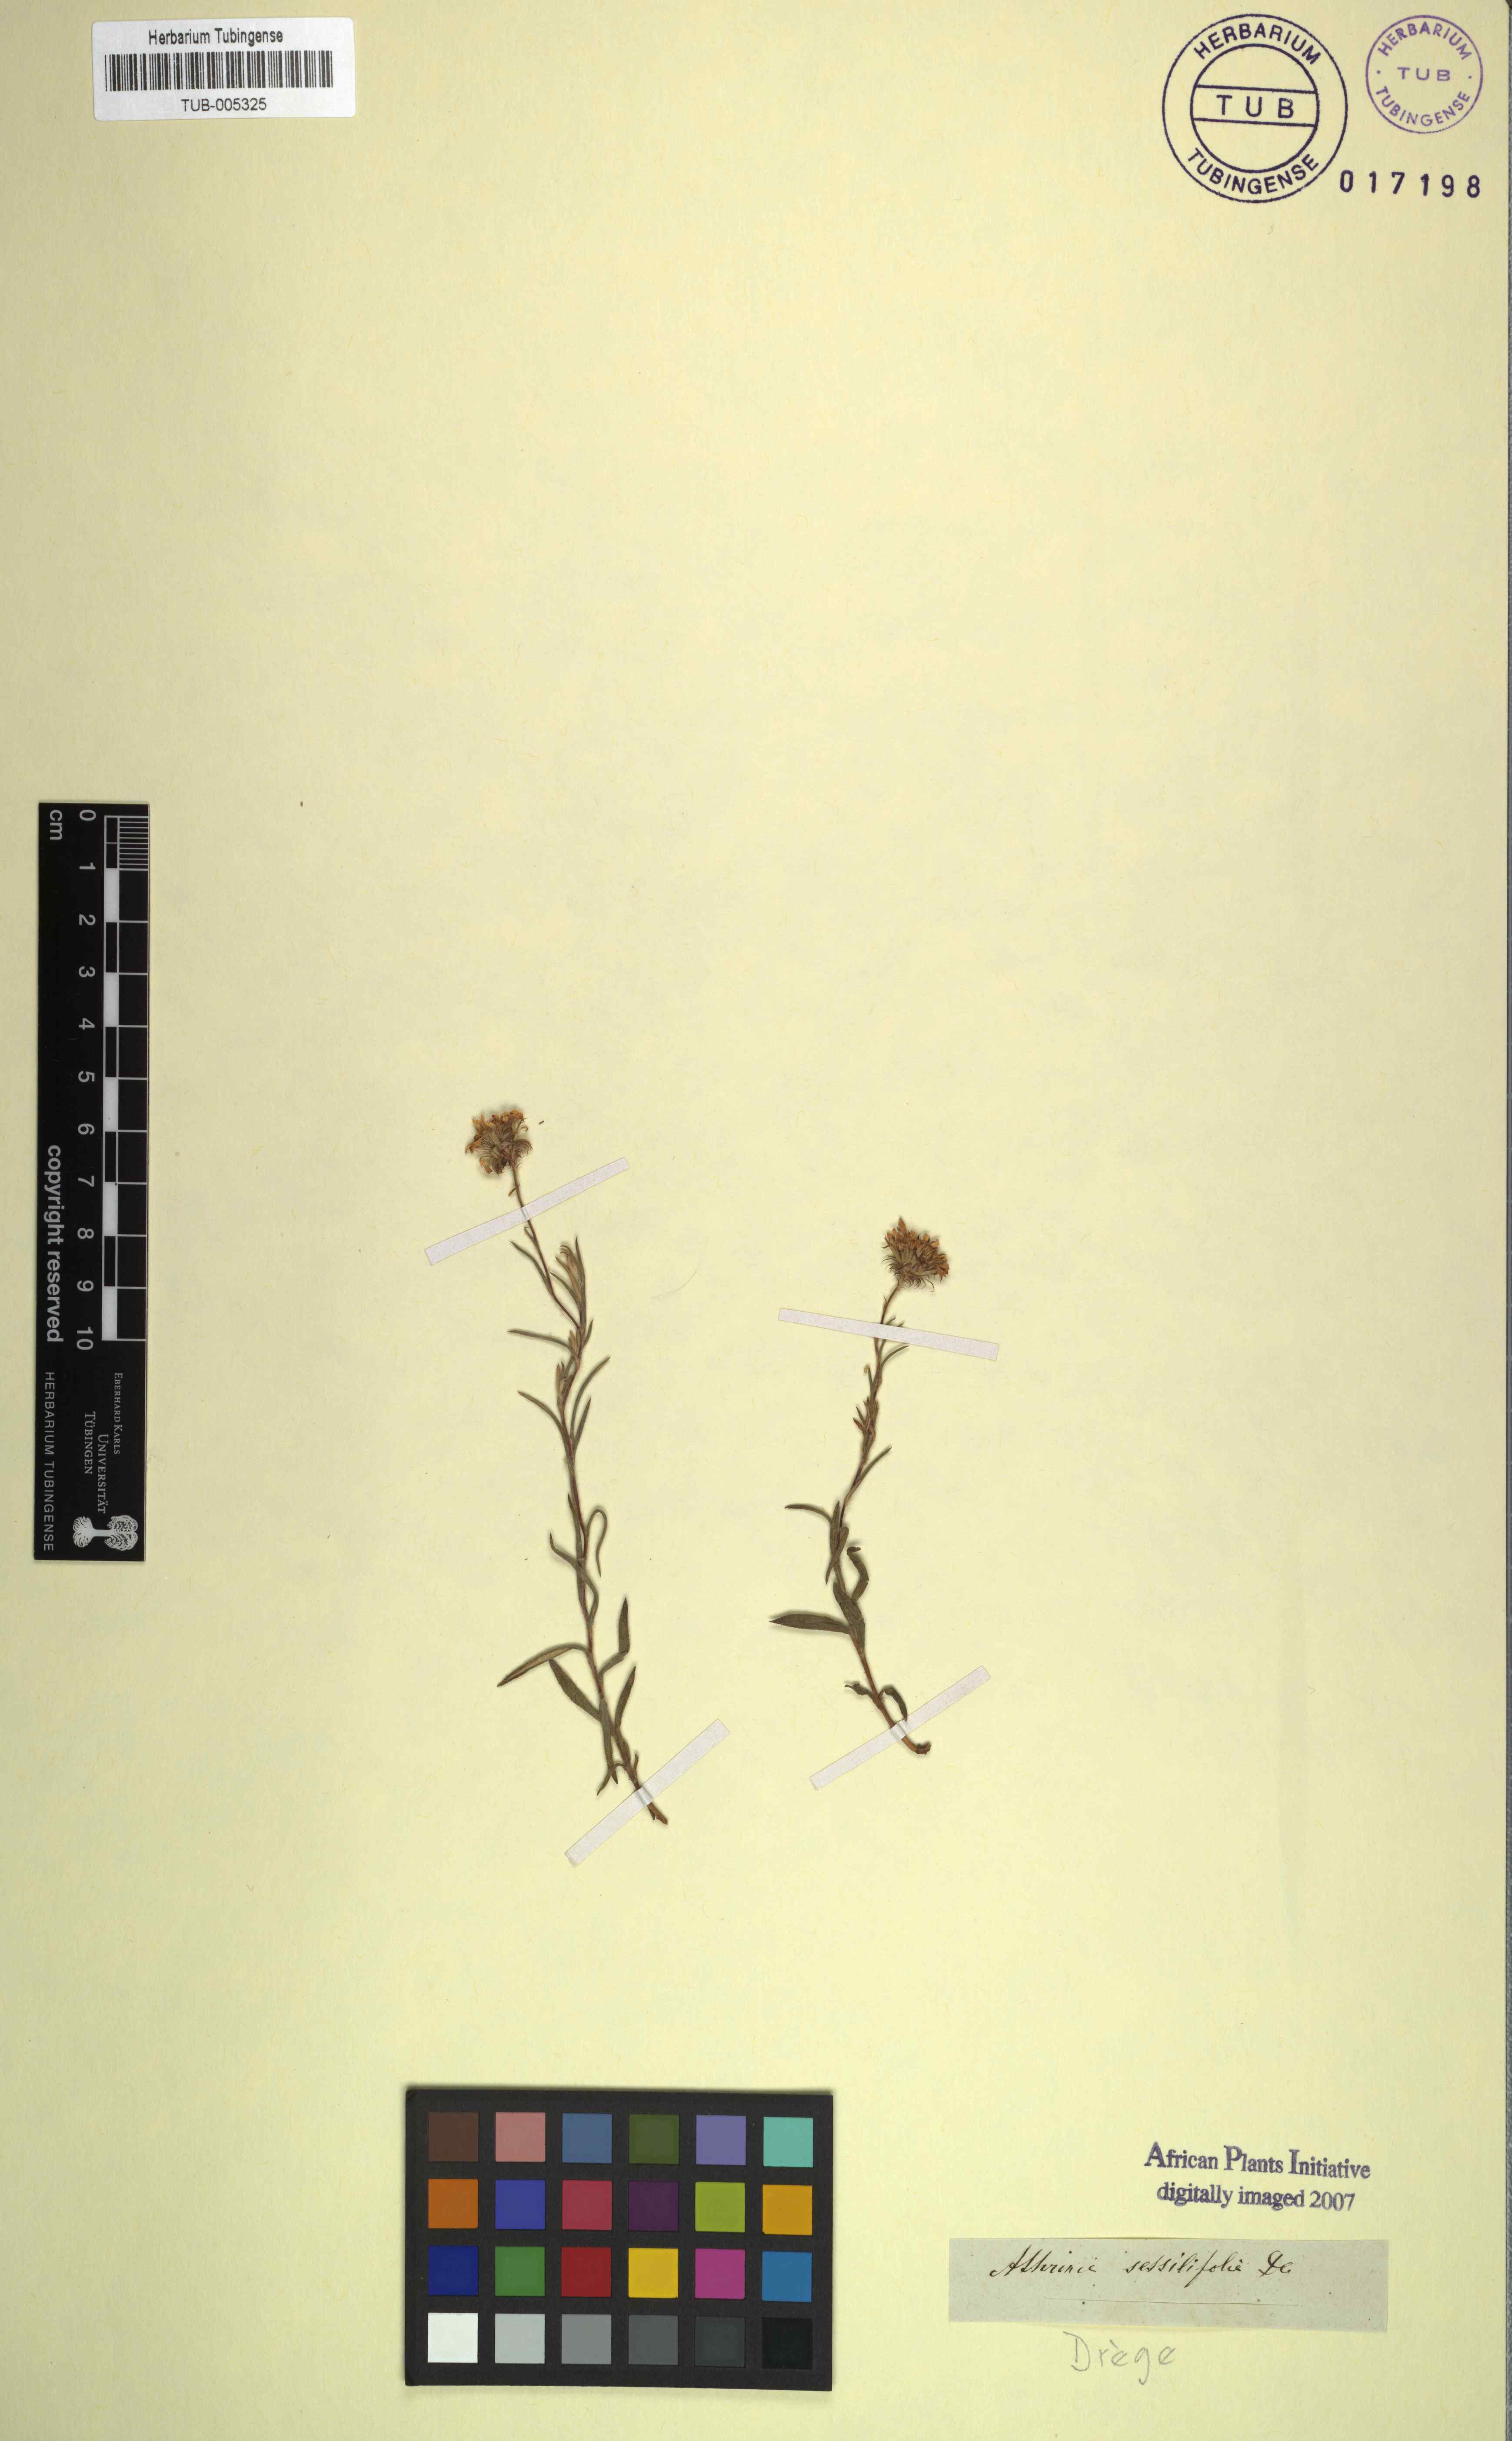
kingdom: Plantae
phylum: Tracheophyta
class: Magnoliopsida
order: Asterales
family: Asteraceae
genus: Athrixia
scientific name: Athrixia heterophylla
